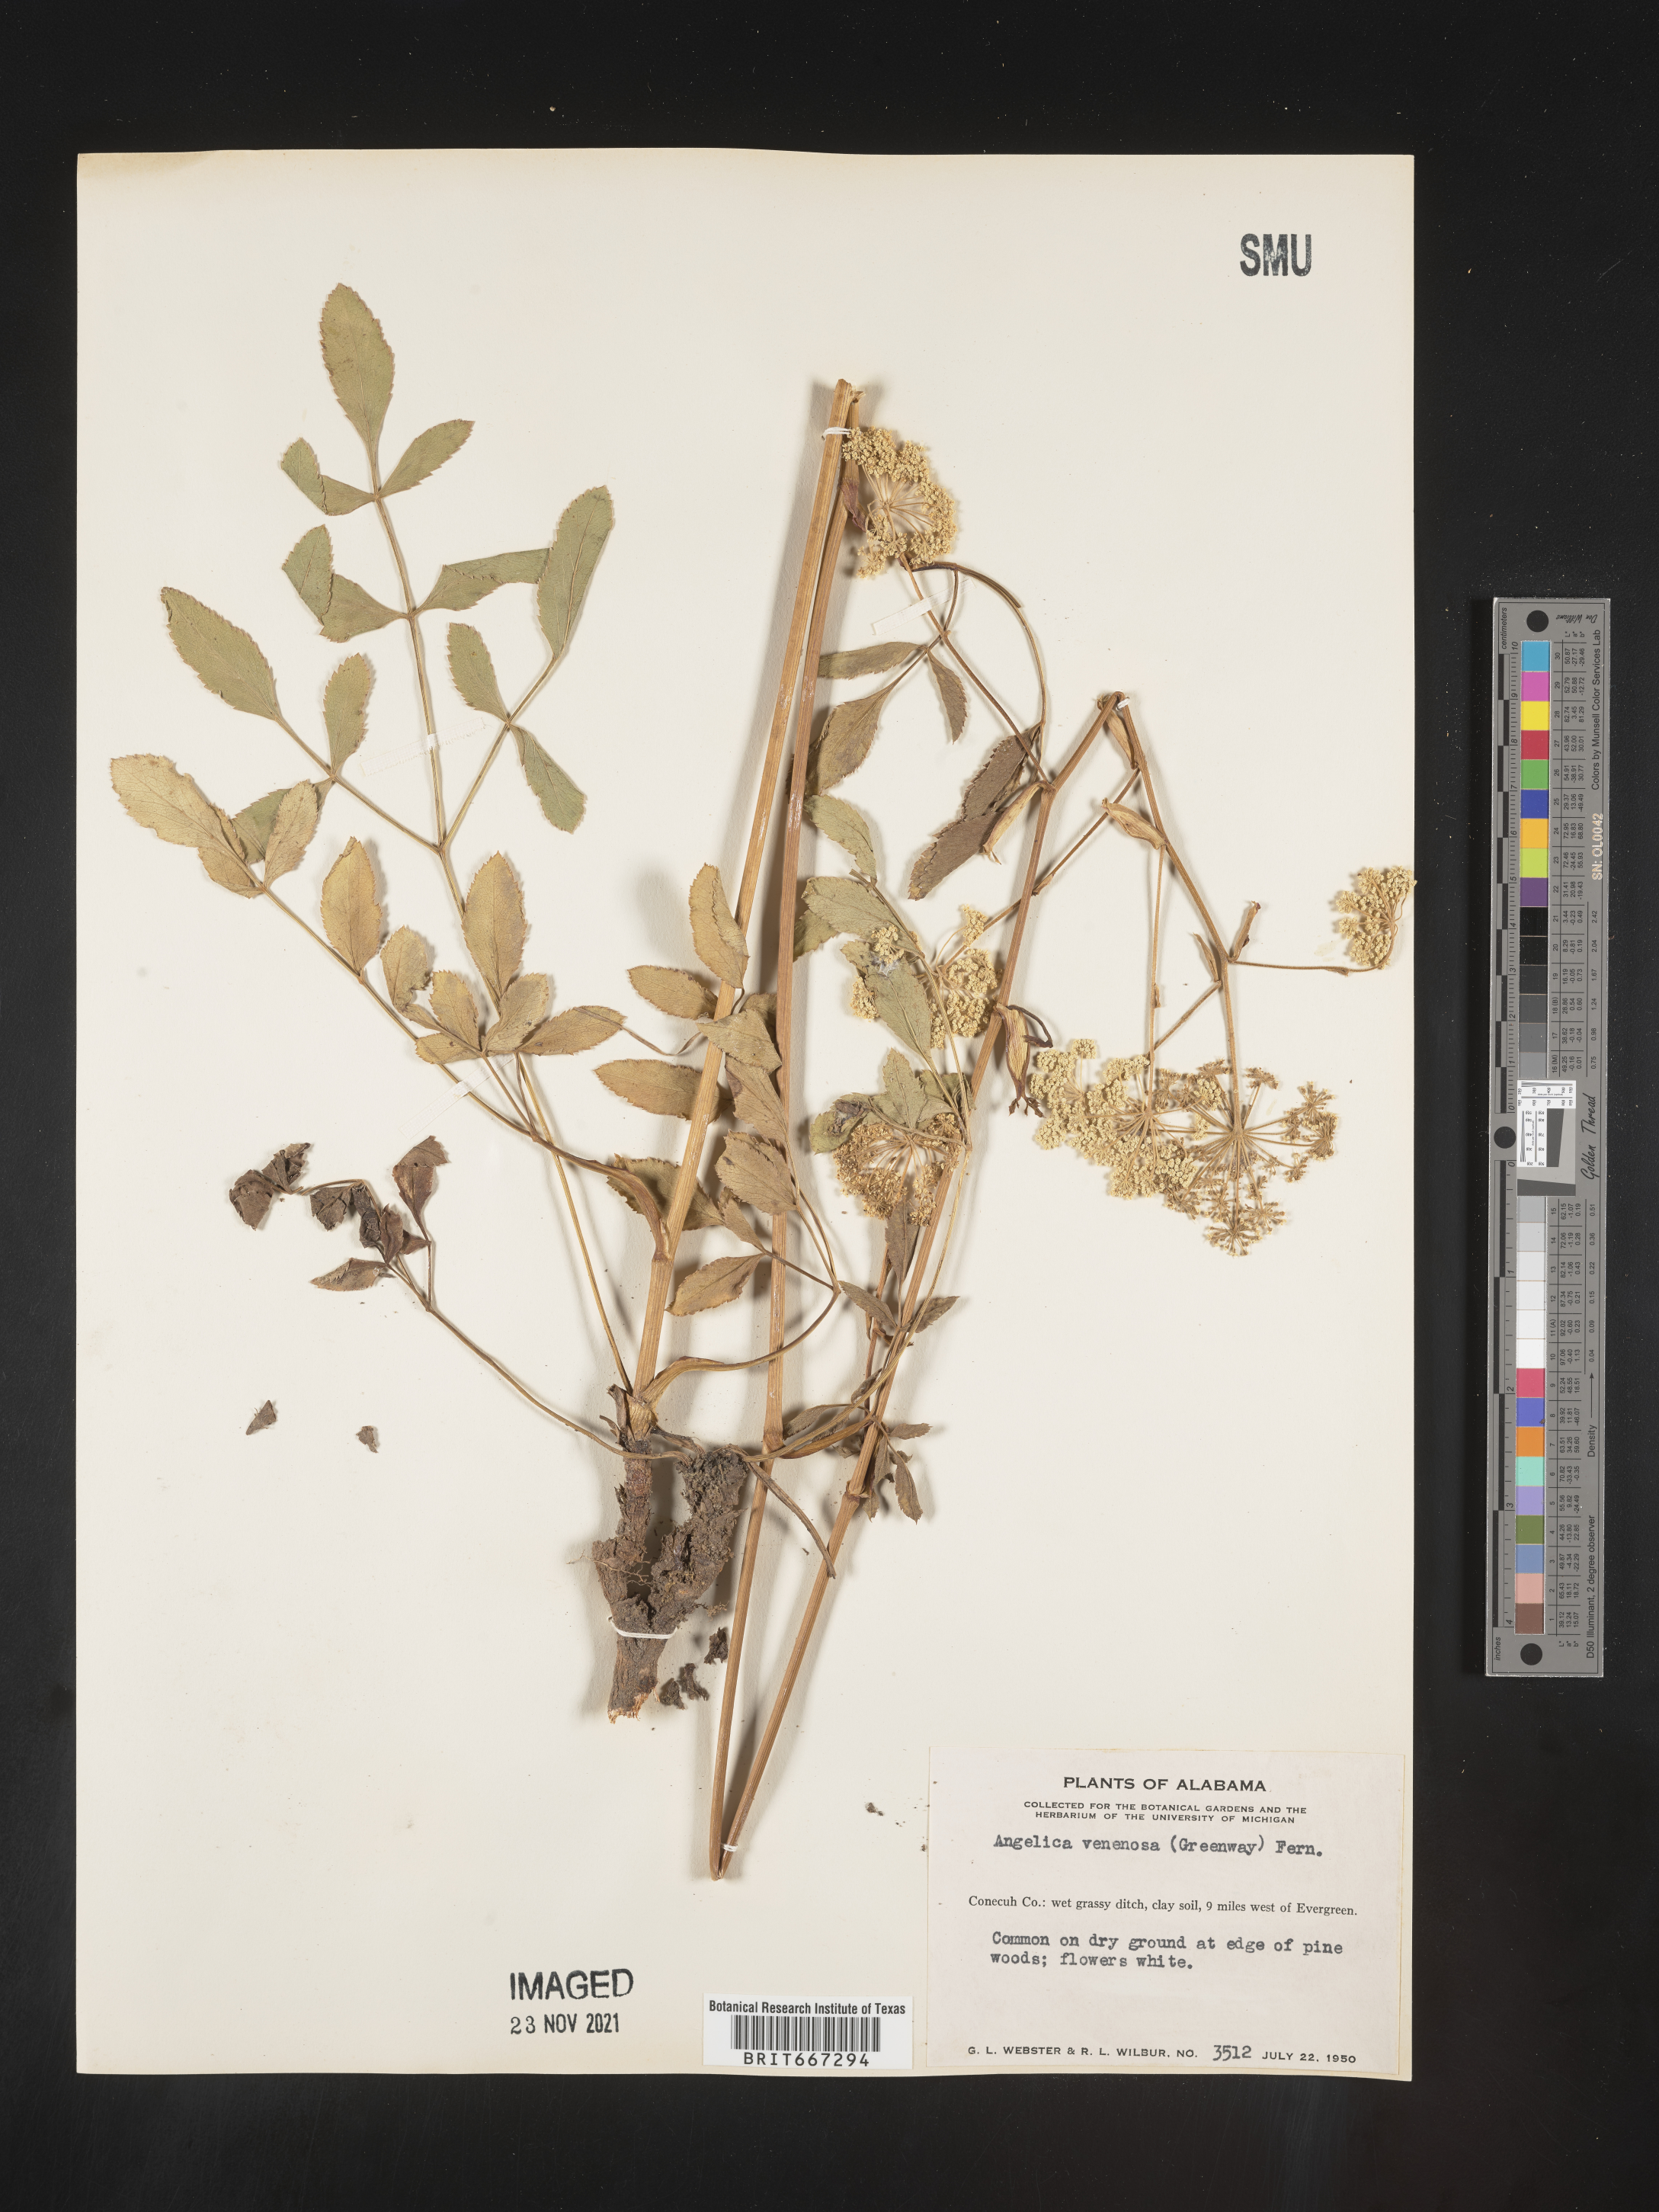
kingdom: Plantae
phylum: Tracheophyta
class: Magnoliopsida
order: Apiales
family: Apiaceae
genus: Angelica
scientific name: Angelica venenosa
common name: Hairy angelica
